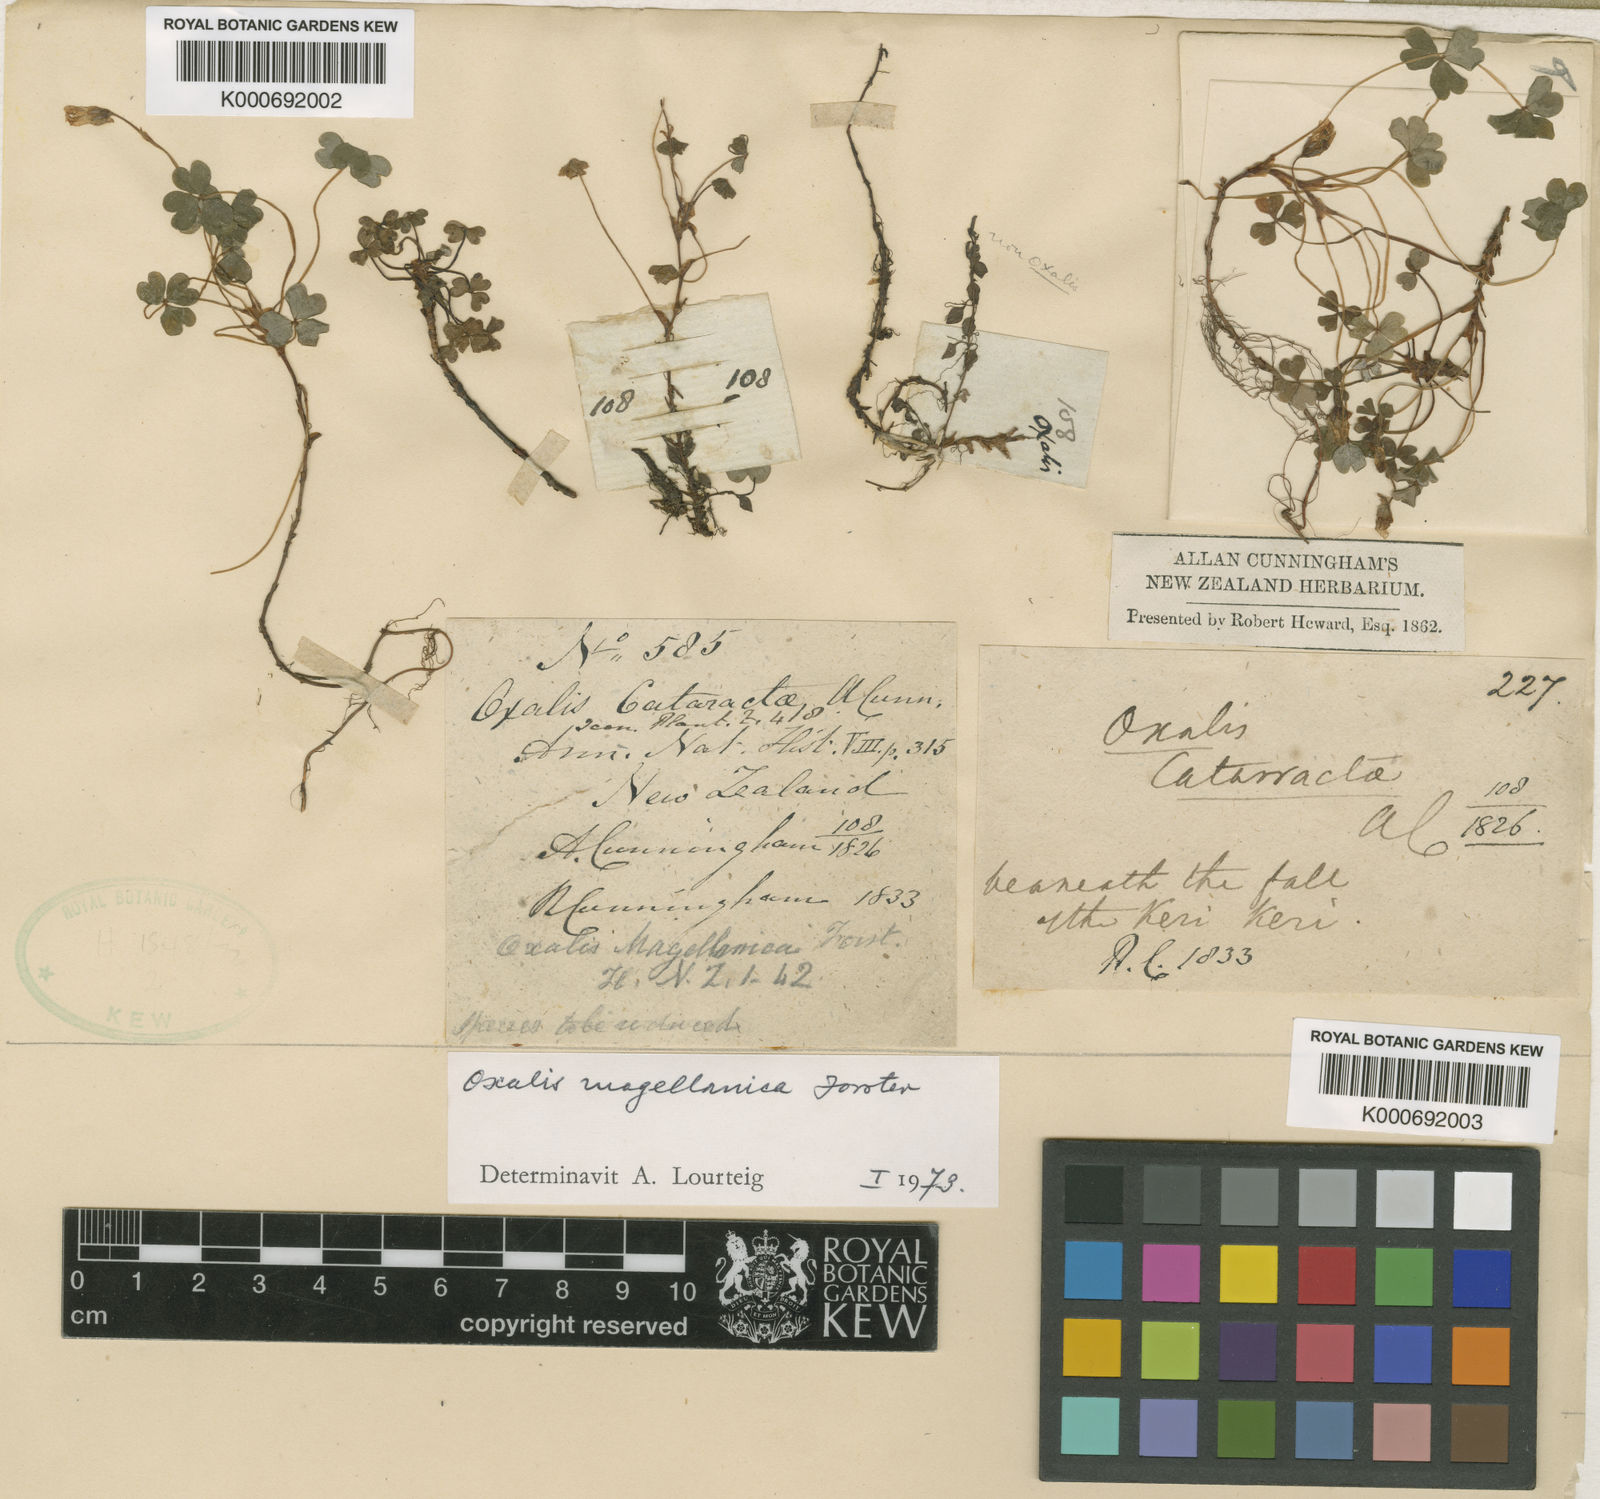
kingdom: Plantae
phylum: Tracheophyta
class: Magnoliopsida
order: Oxalidales
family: Oxalidaceae
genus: Oxalis
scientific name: Oxalis magellanica
